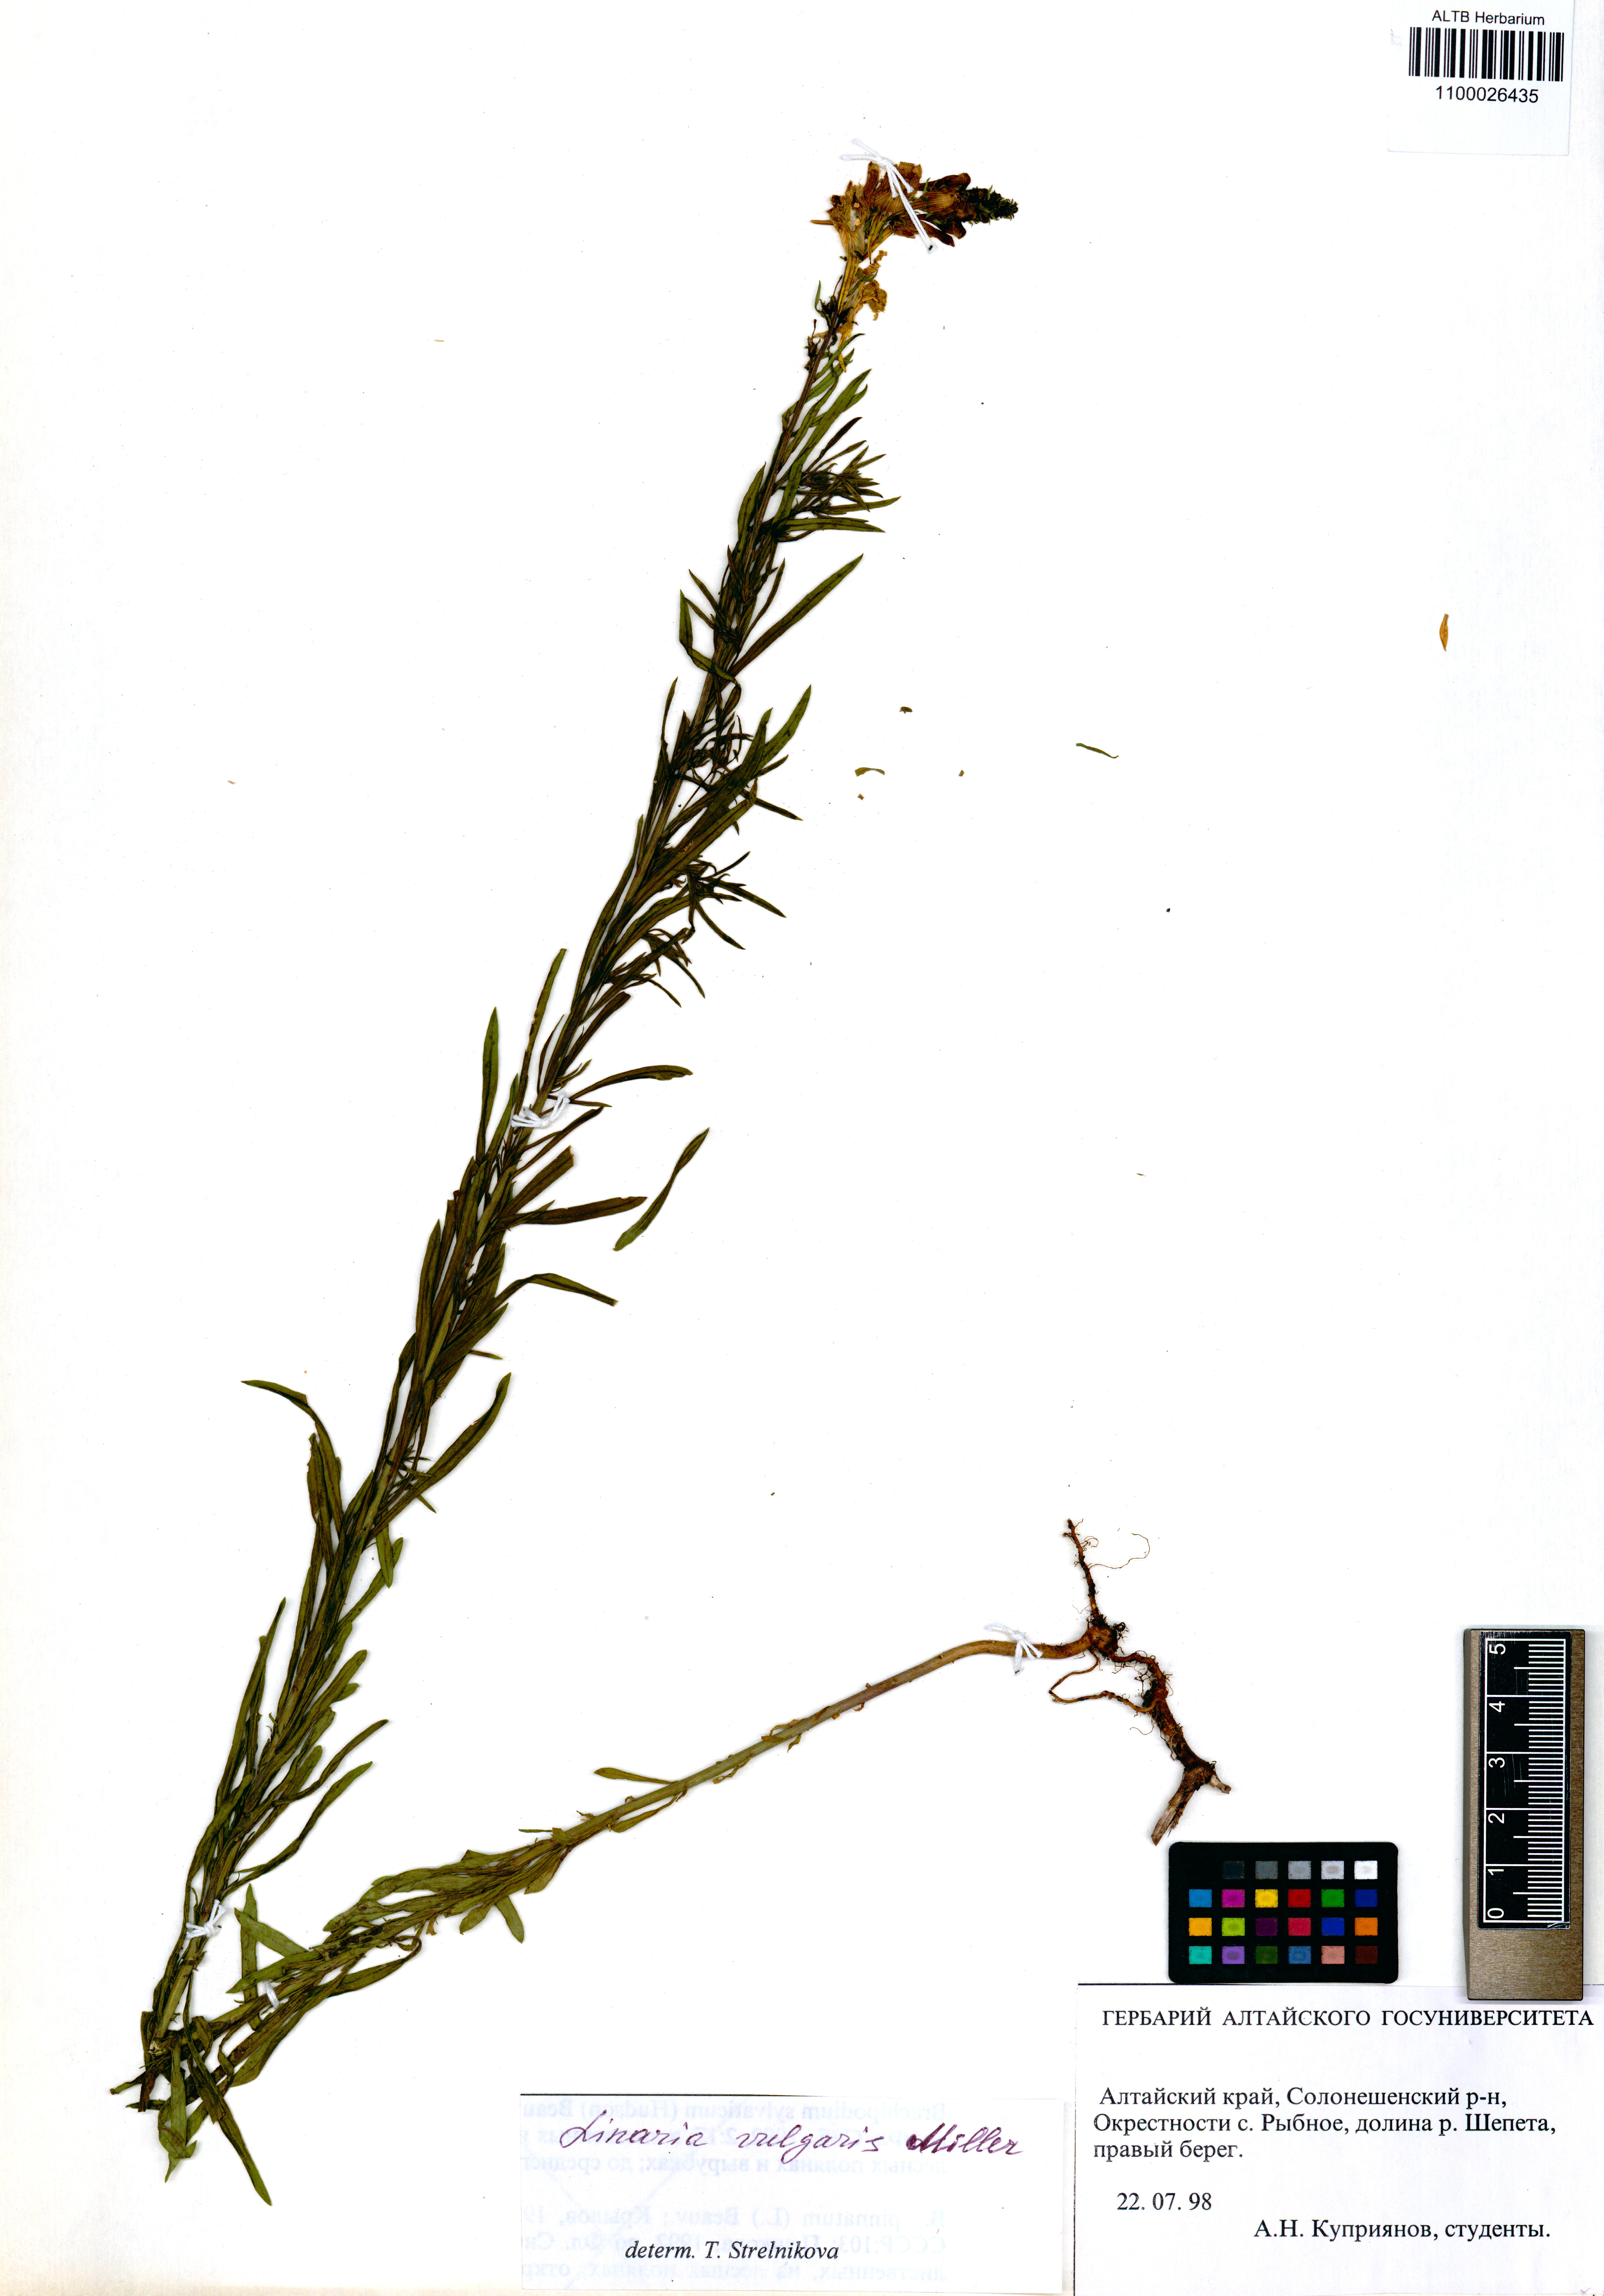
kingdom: Plantae
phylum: Tracheophyta
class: Magnoliopsida
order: Lamiales
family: Plantaginaceae
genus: Linaria
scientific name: Linaria vulgaris
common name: Butter and eggs
